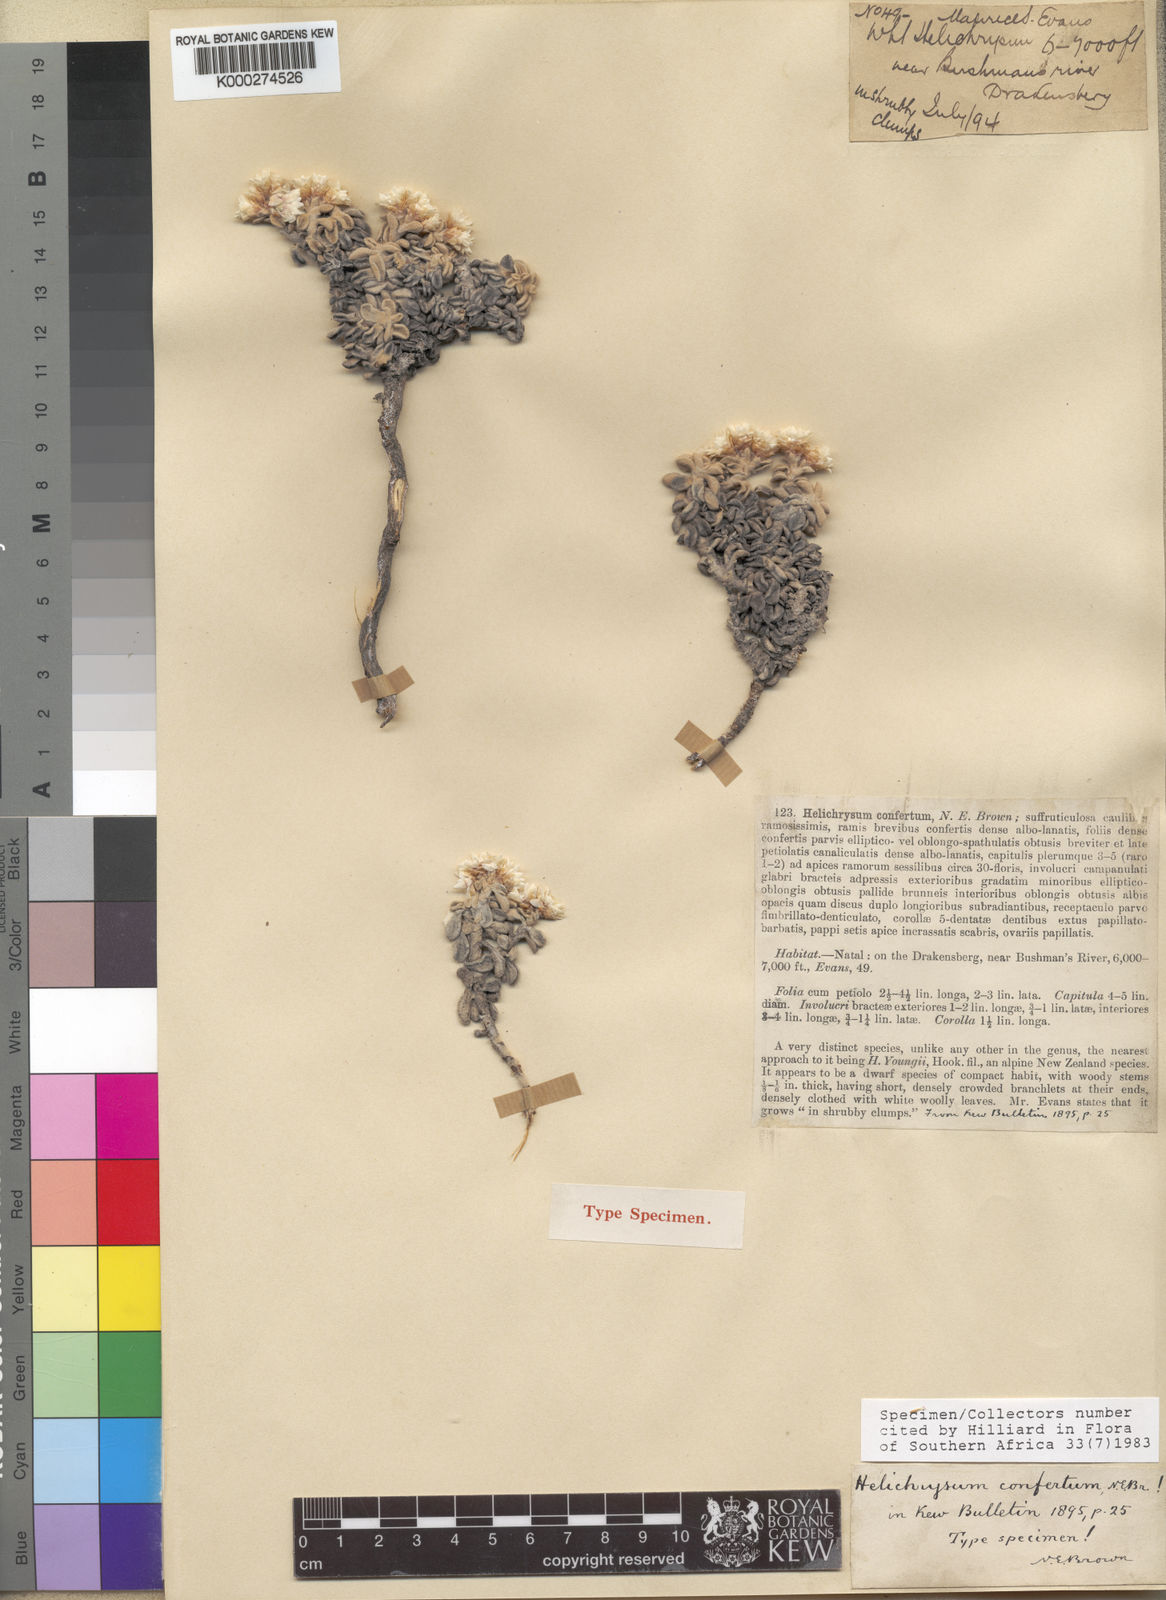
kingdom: Plantae
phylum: Tracheophyta
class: Magnoliopsida
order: Asterales
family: Asteraceae
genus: Helichrysum
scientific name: Helichrysum confertum
